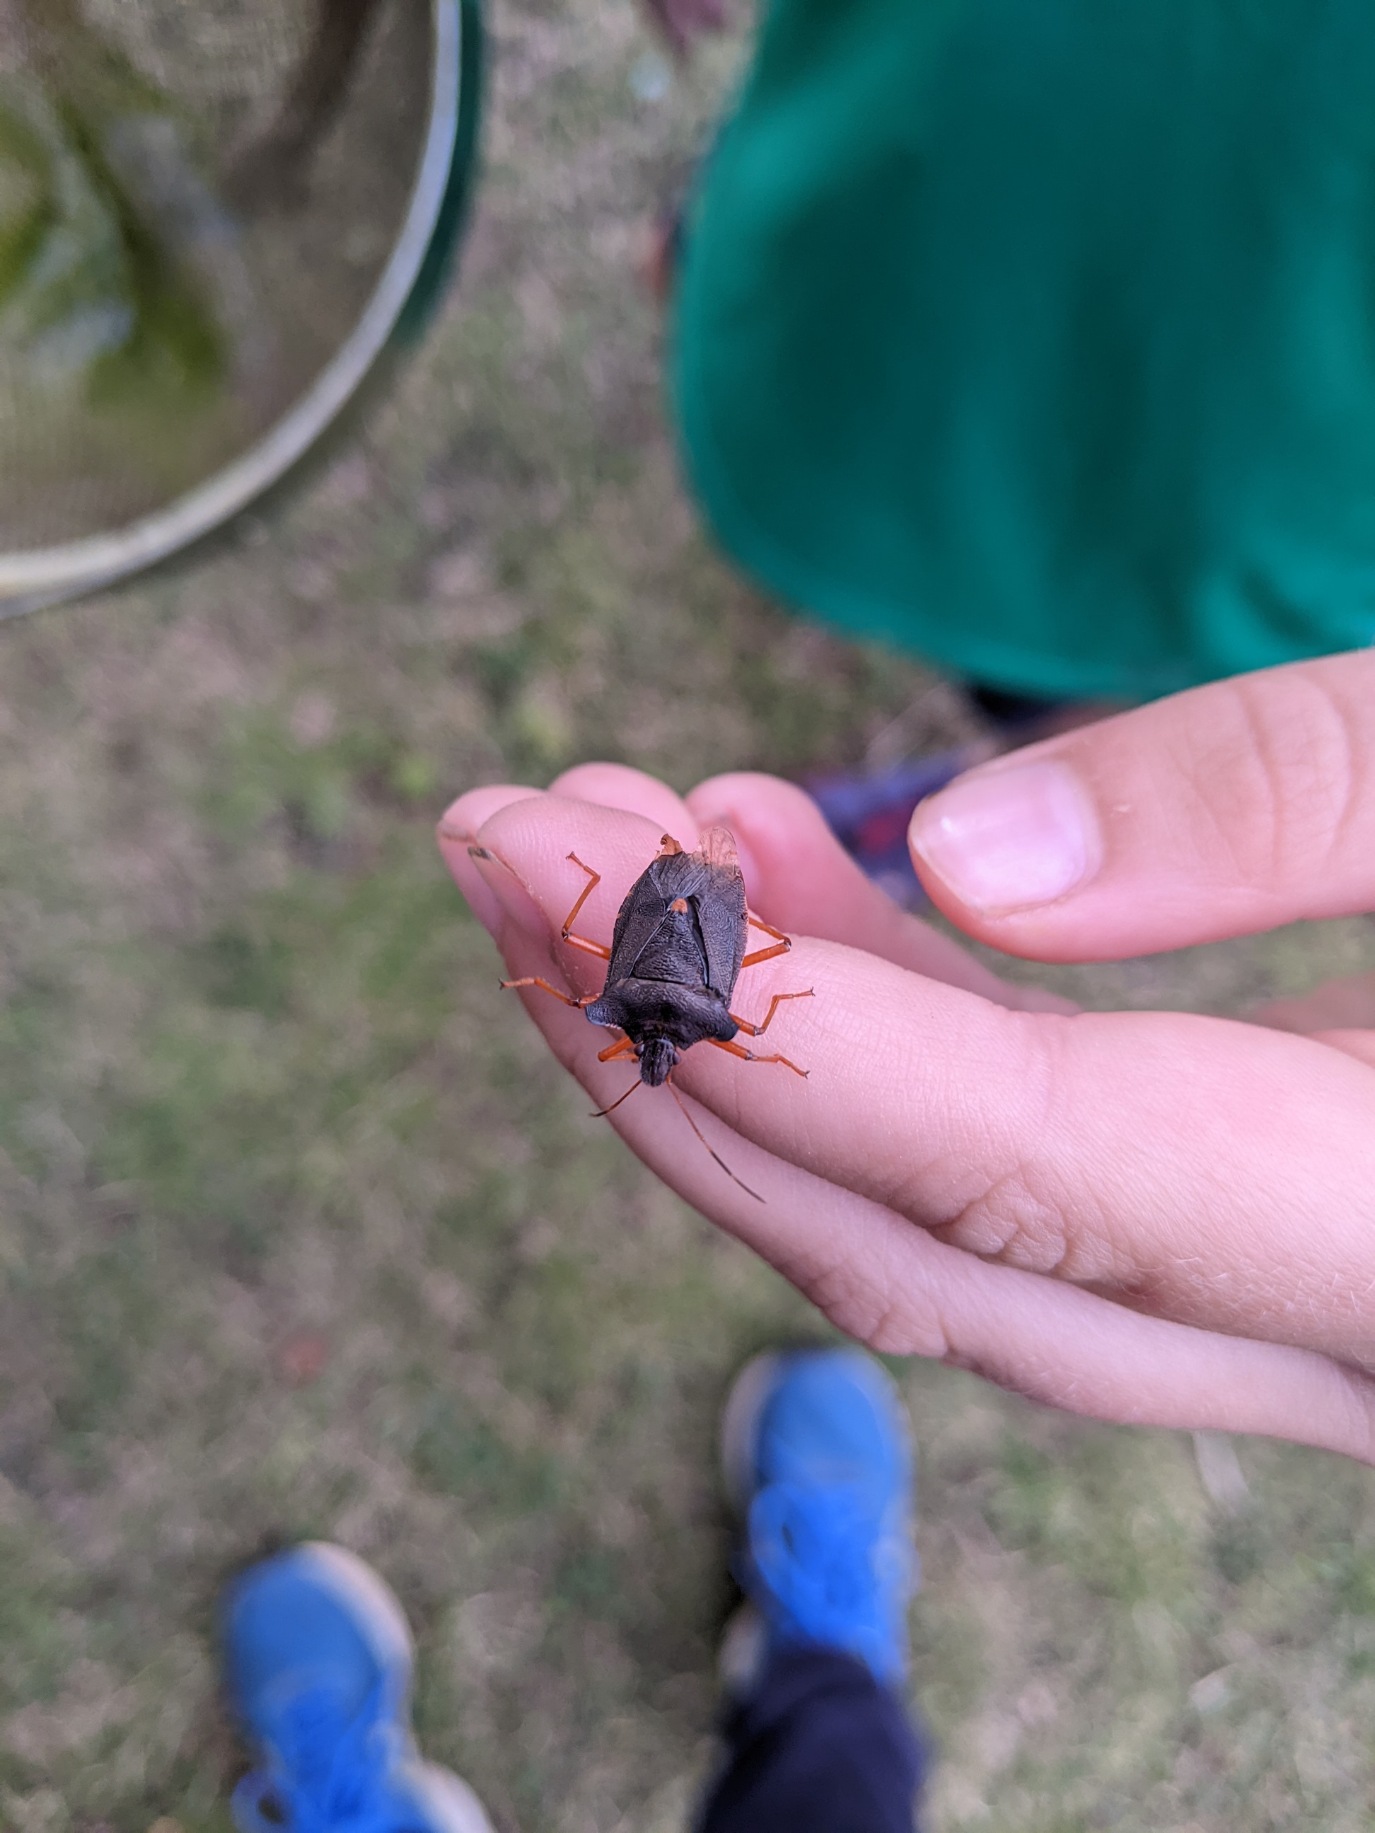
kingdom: Animalia
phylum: Arthropoda
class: Insecta
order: Hemiptera
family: Pentatomidae
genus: Pentatoma
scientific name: Pentatoma rufipes
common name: Rødbenet bredtæge
